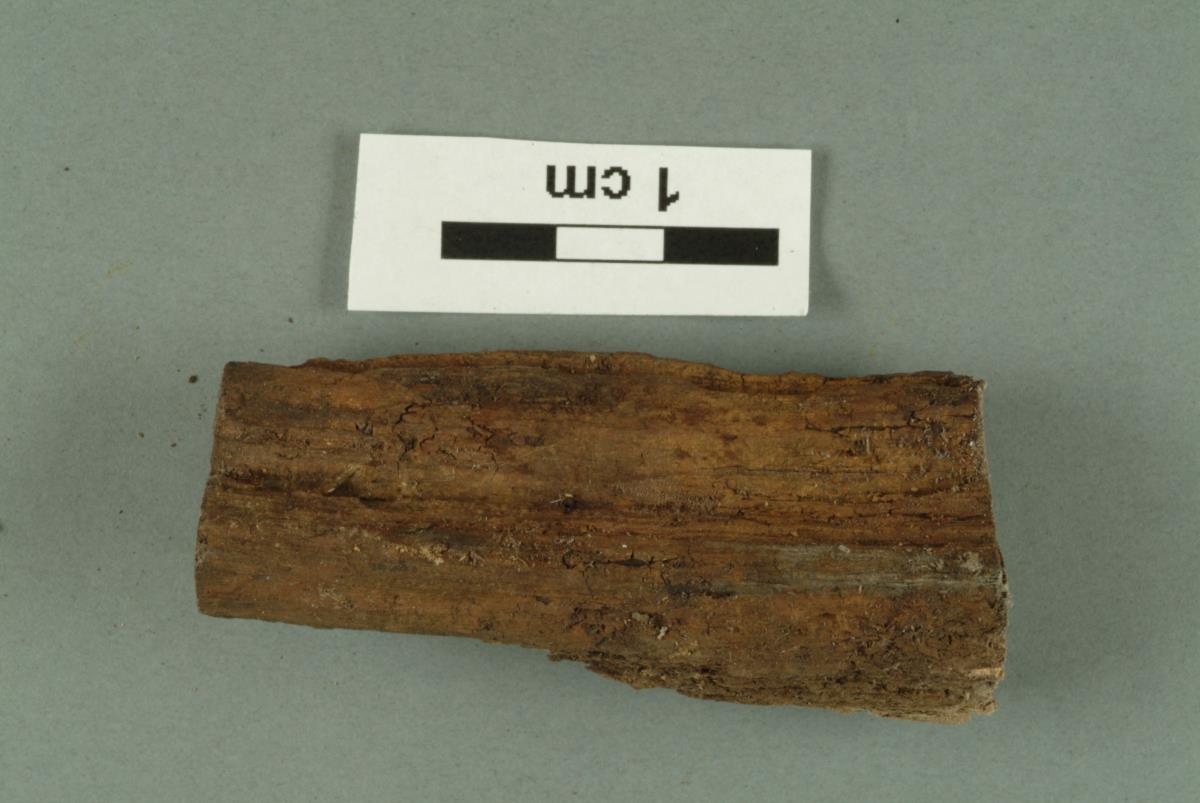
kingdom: Fungi
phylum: Ascomycota
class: Sordariomycetes
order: Hypocreales
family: Bionectriaceae
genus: Bionectria
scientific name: Bionectria
